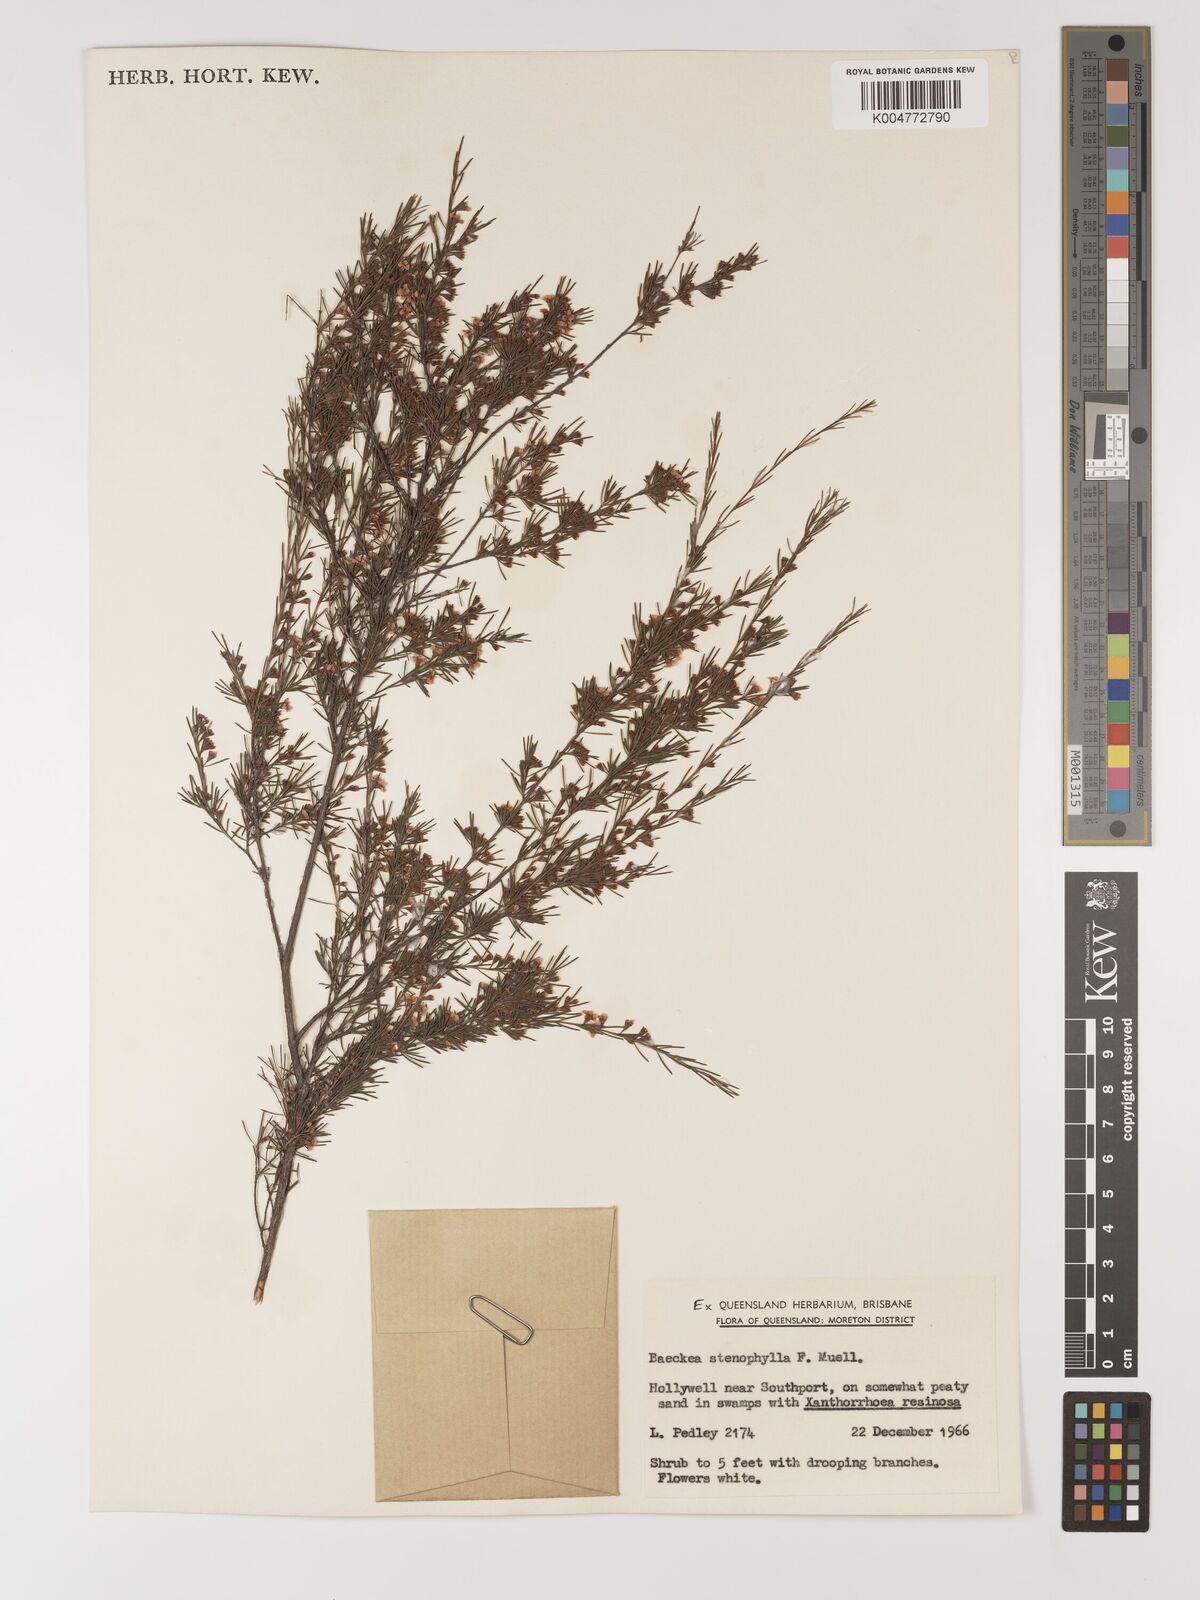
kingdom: Plantae
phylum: Tracheophyta
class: Magnoliopsida
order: Myrtales
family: Myrtaceae
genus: Baeckea
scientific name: Baeckea frutescens
